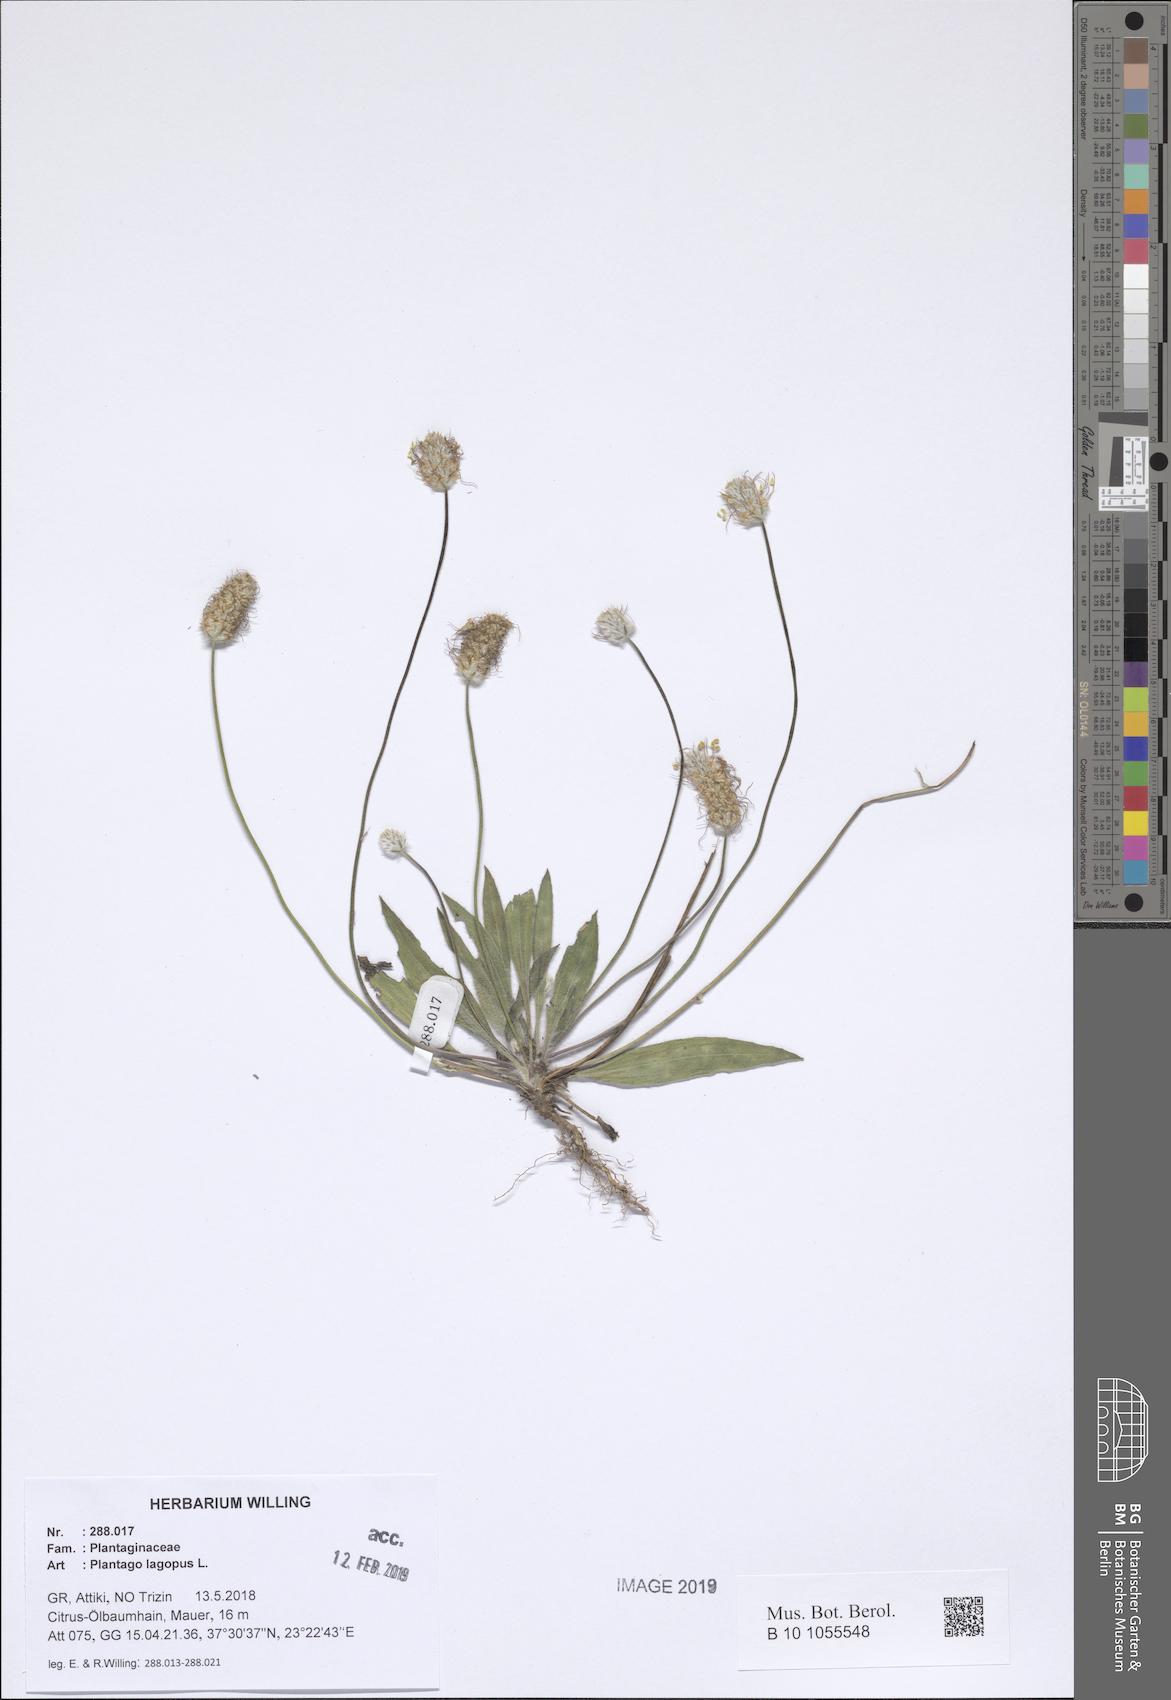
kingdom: Plantae
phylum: Tracheophyta
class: Magnoliopsida
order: Lamiales
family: Plantaginaceae
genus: Plantago
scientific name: Plantago lagopus
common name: Hare-foot plantain
